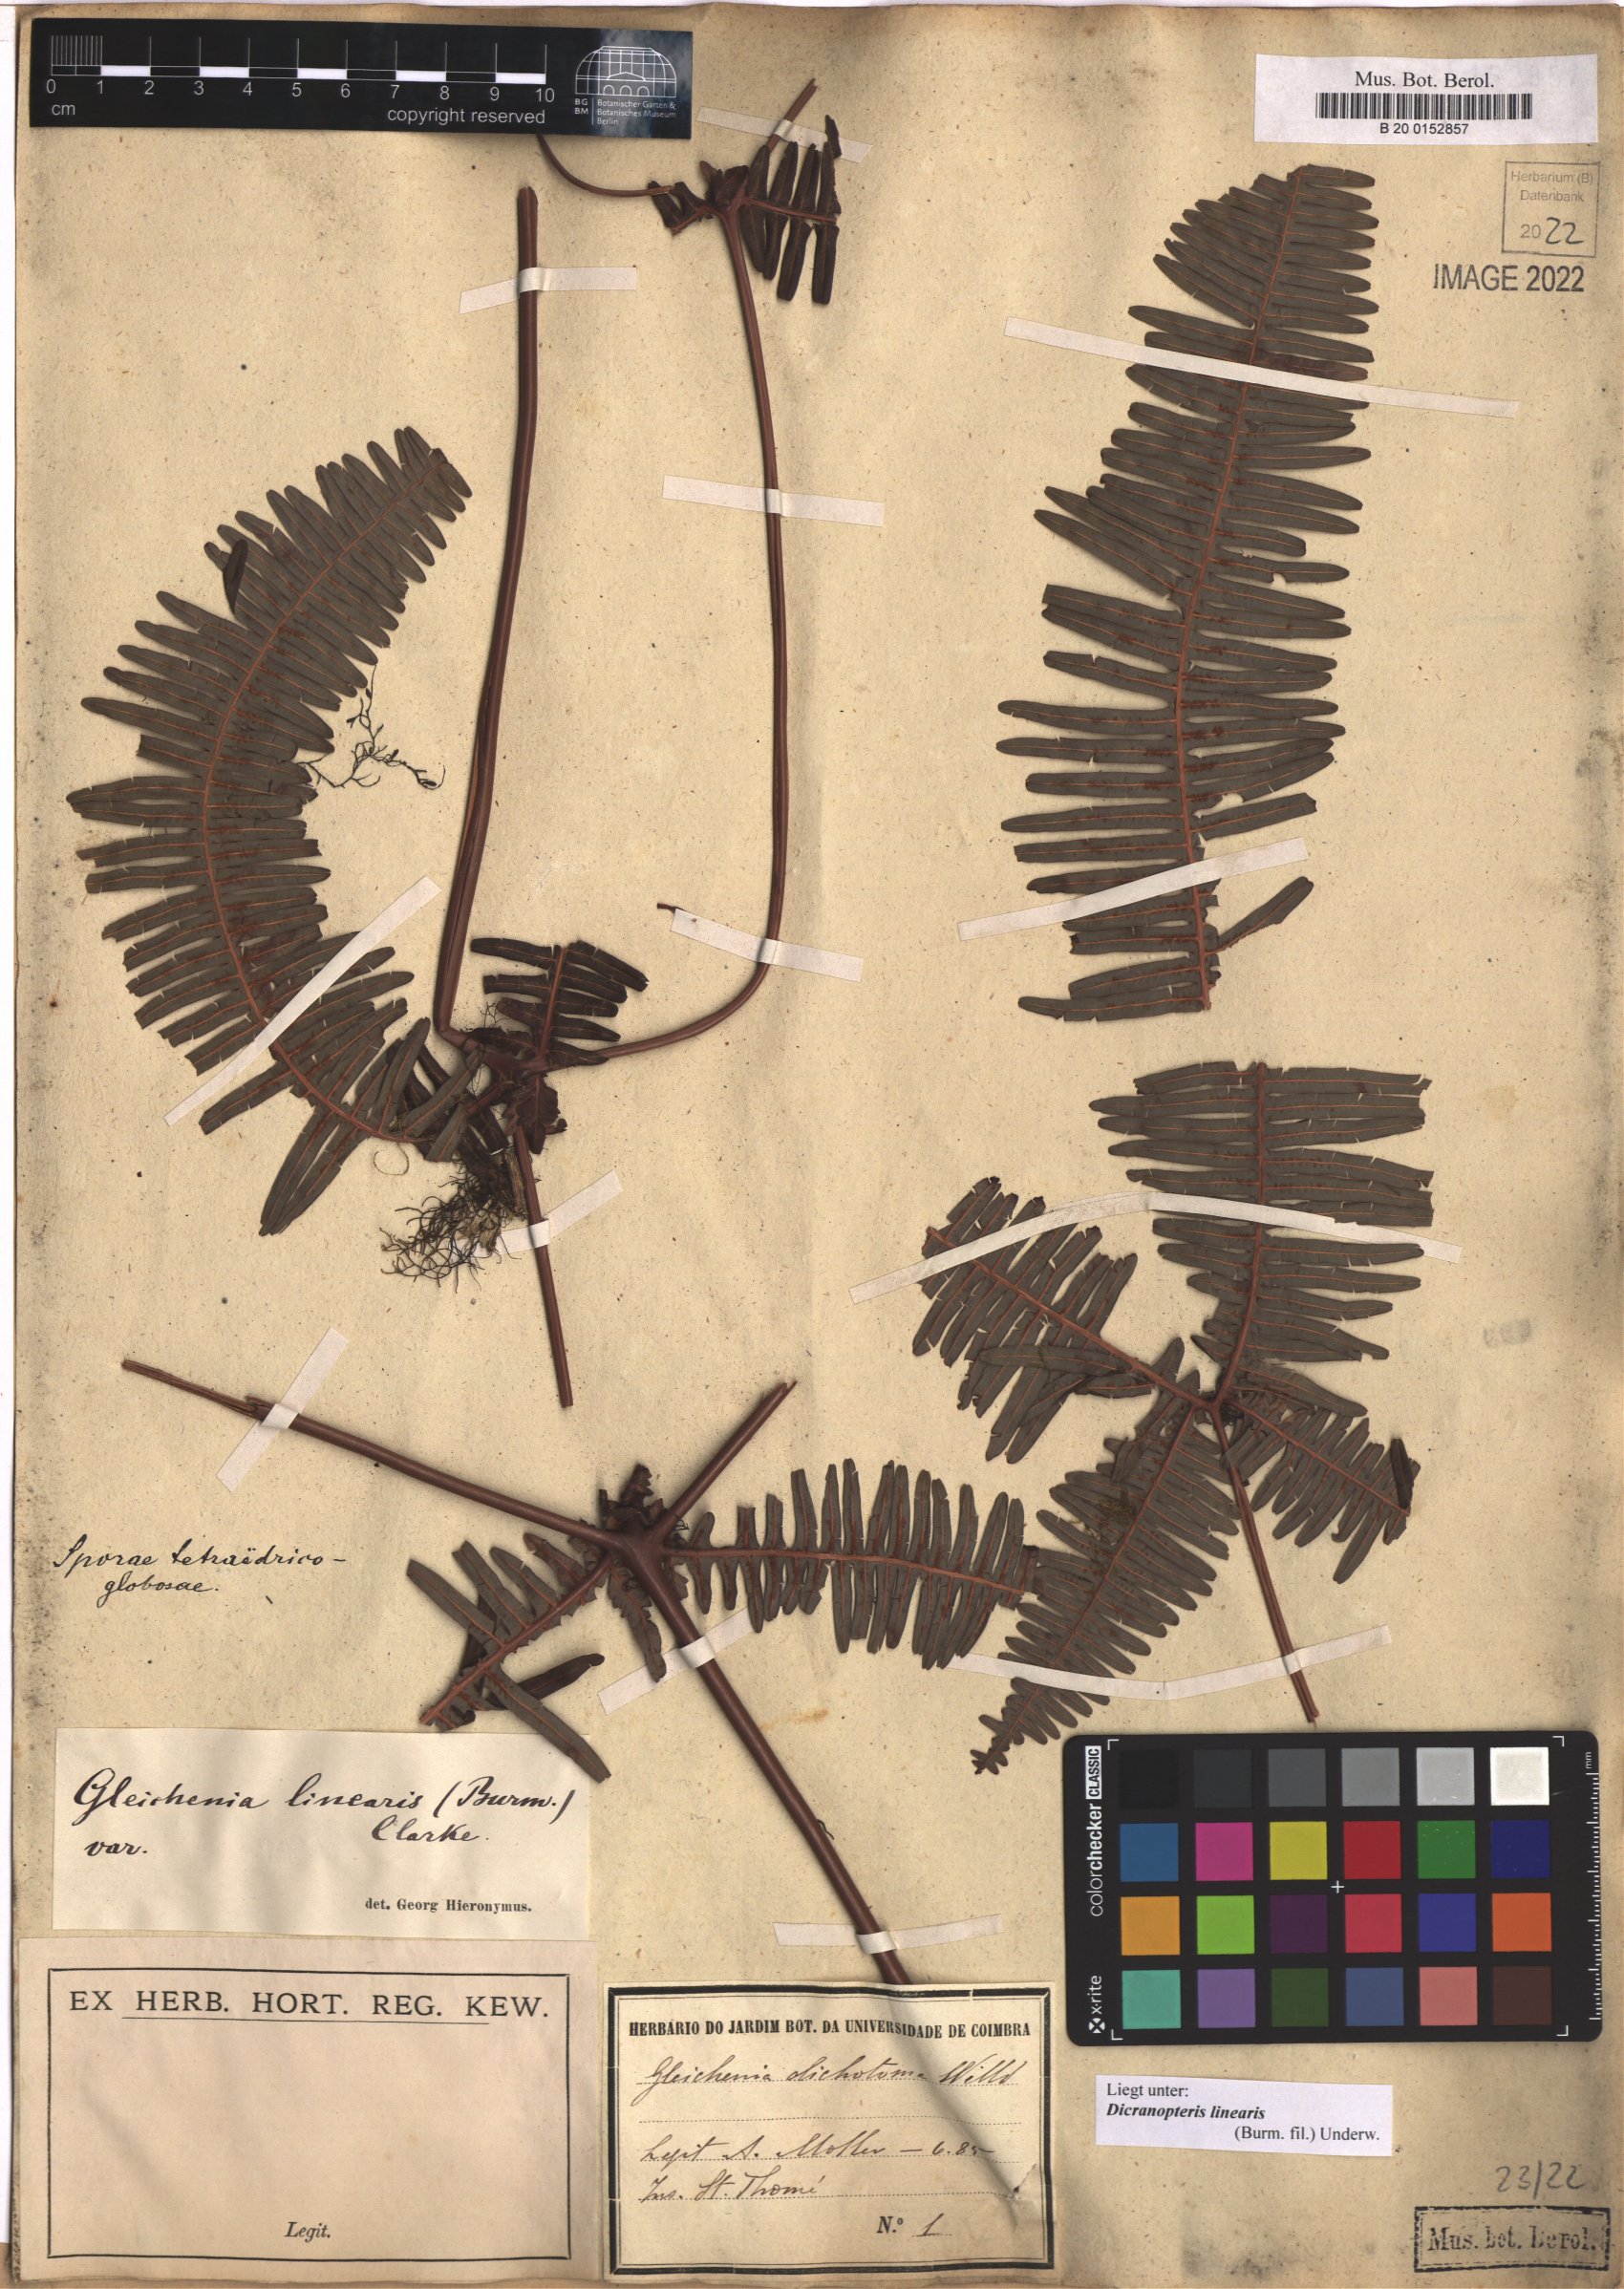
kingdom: Plantae
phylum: Tracheophyta
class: Polypodiopsida
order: Gleicheniales
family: Gleicheniaceae
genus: Dicranopteris
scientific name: Dicranopteris linearis
